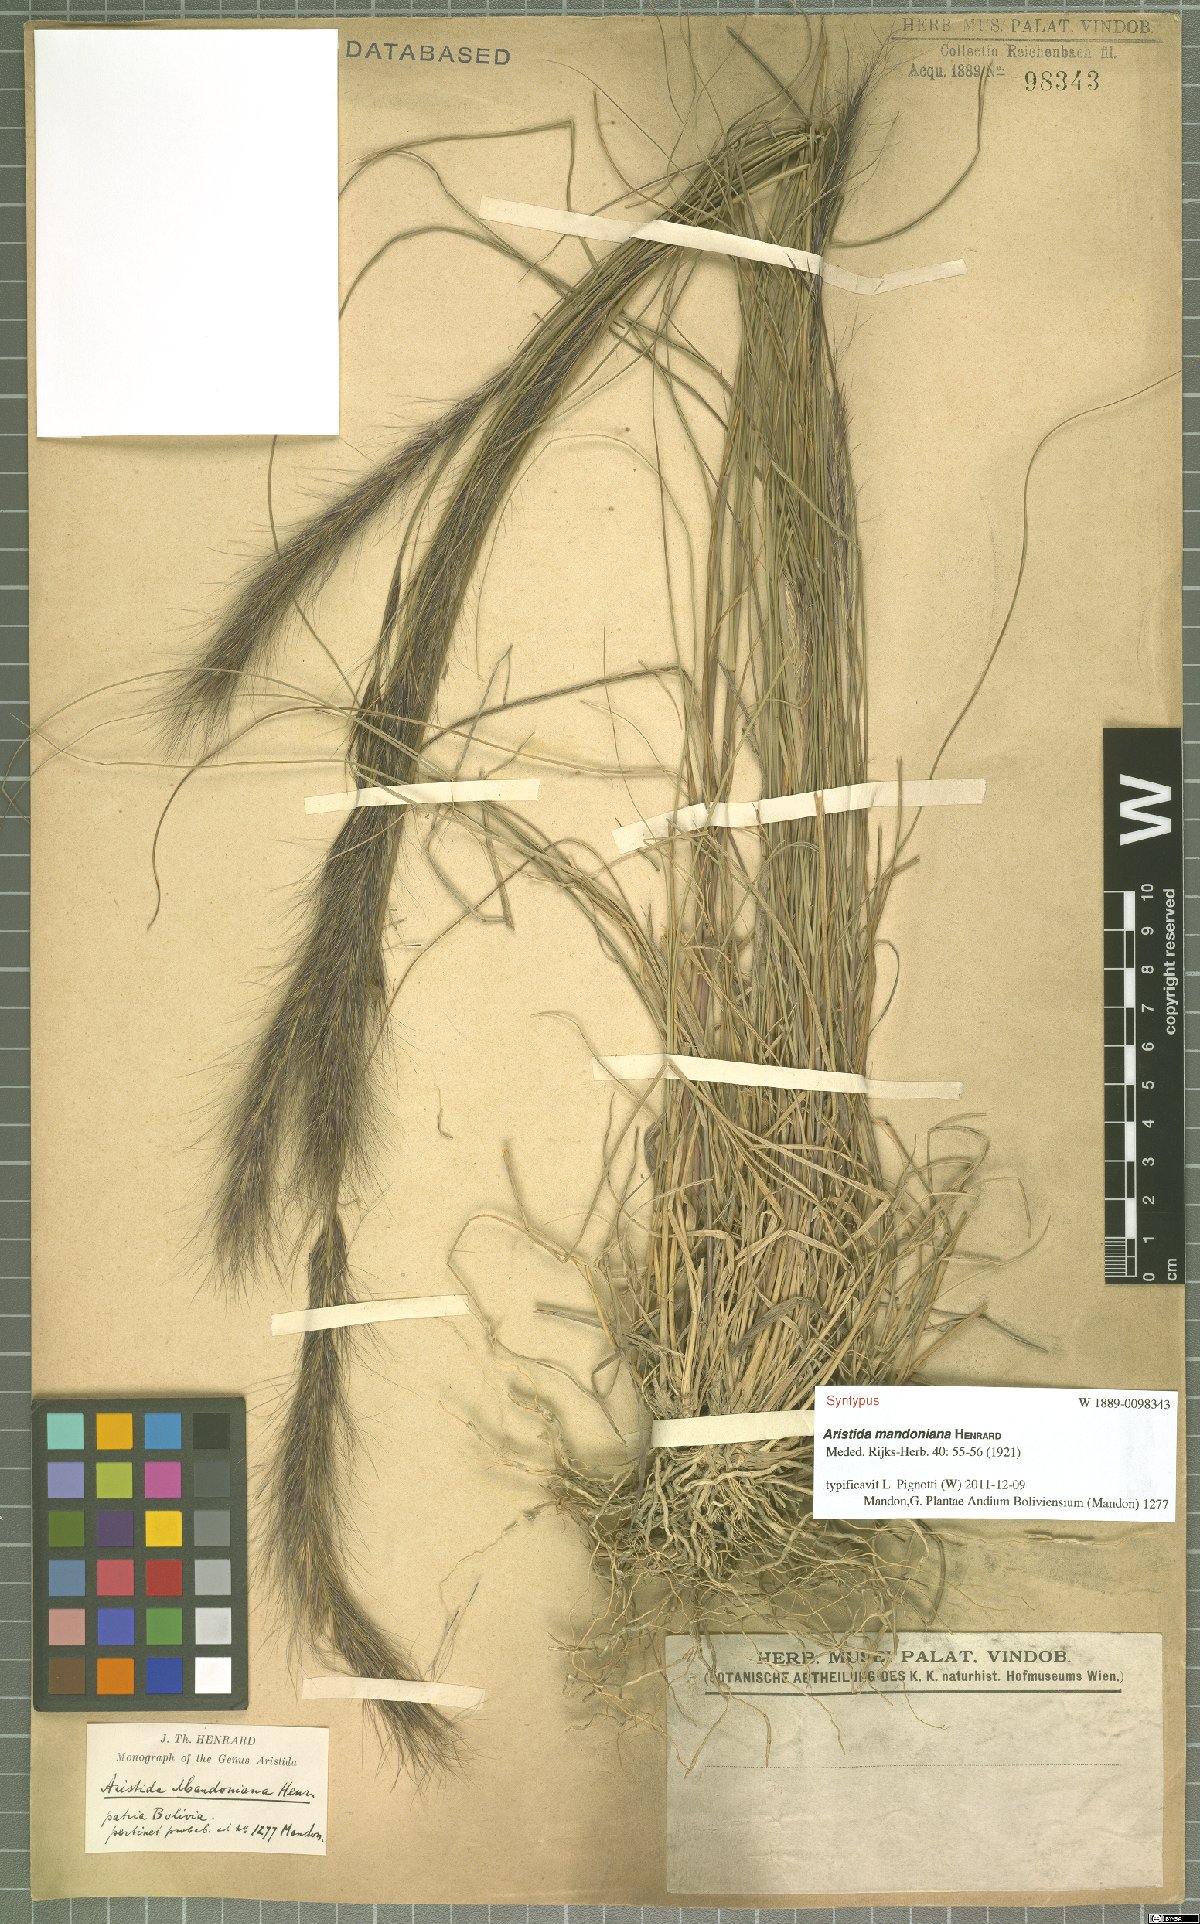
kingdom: Plantae
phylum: Tracheophyta
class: Liliopsida
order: Poales
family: Poaceae
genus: Aristida
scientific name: Aristida mandoniana
